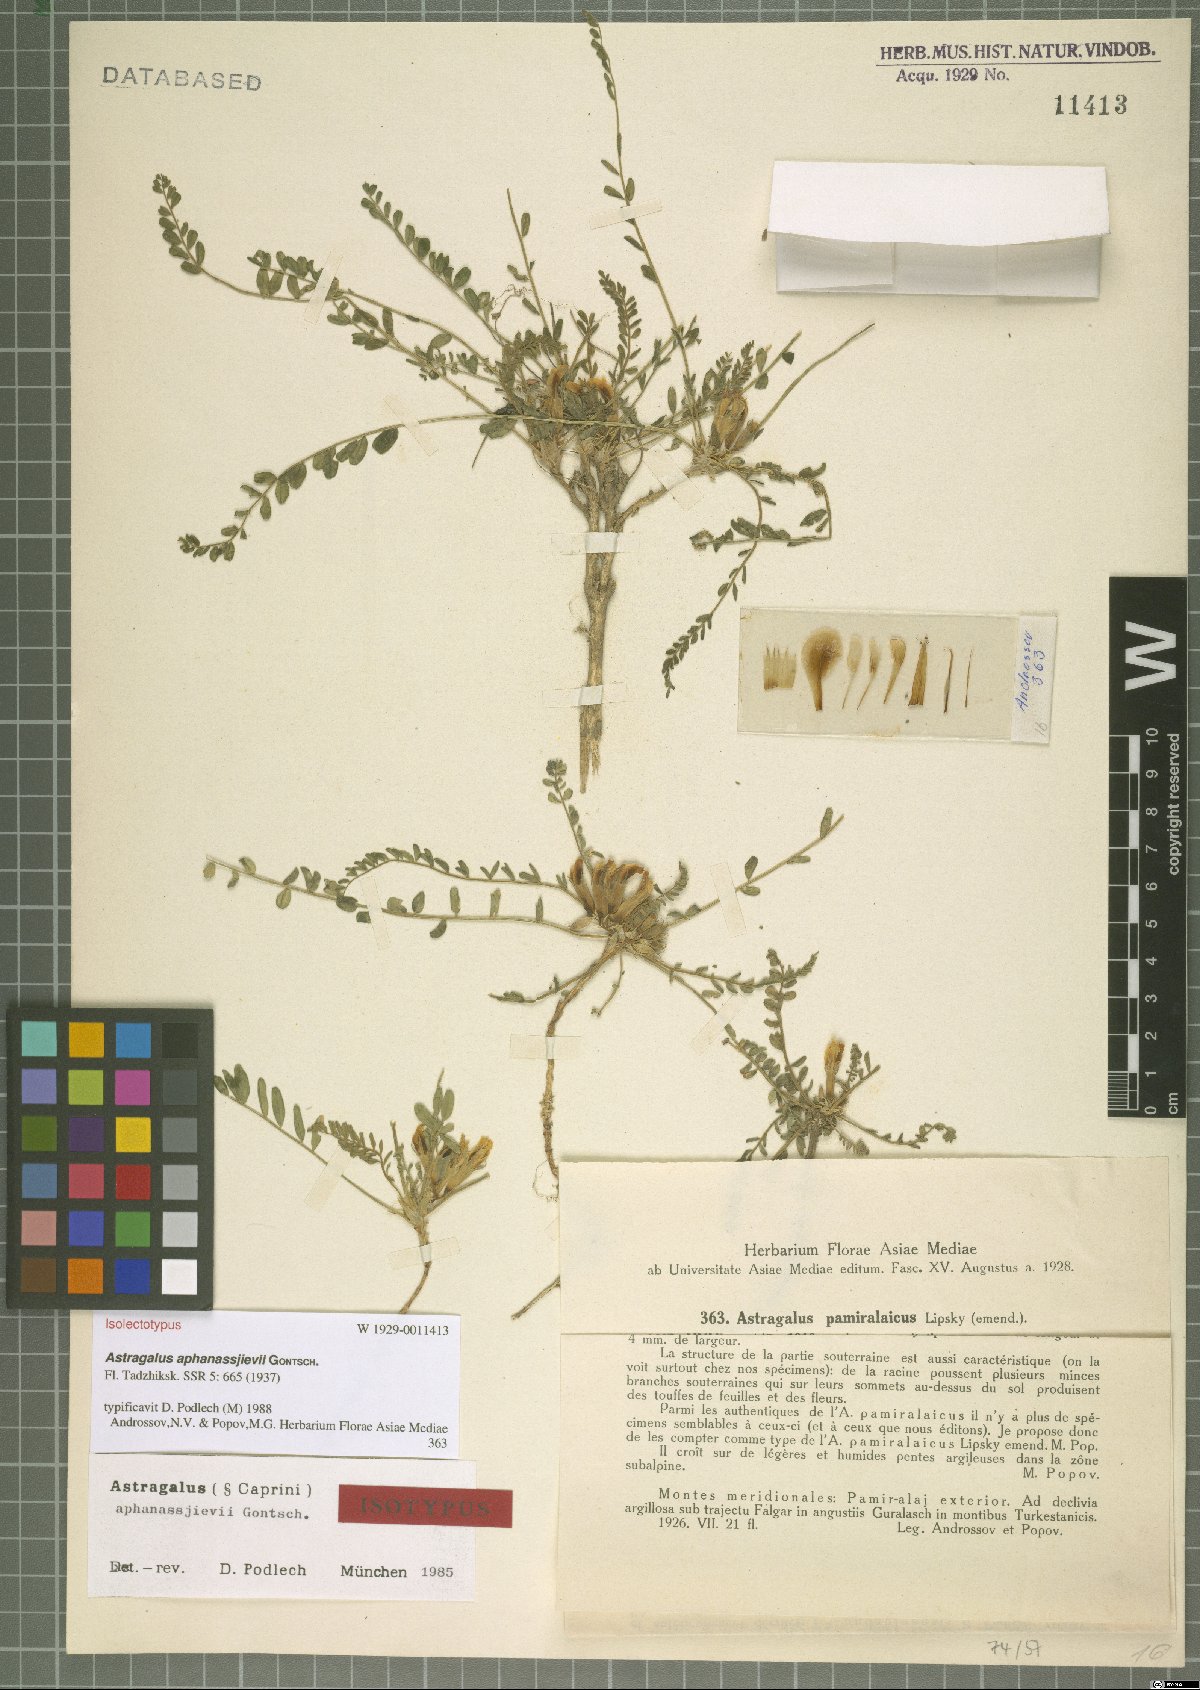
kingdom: Plantae
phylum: Tracheophyta
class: Magnoliopsida
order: Fabales
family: Fabaceae
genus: Astragalus
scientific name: Astragalus aphanassjievii
